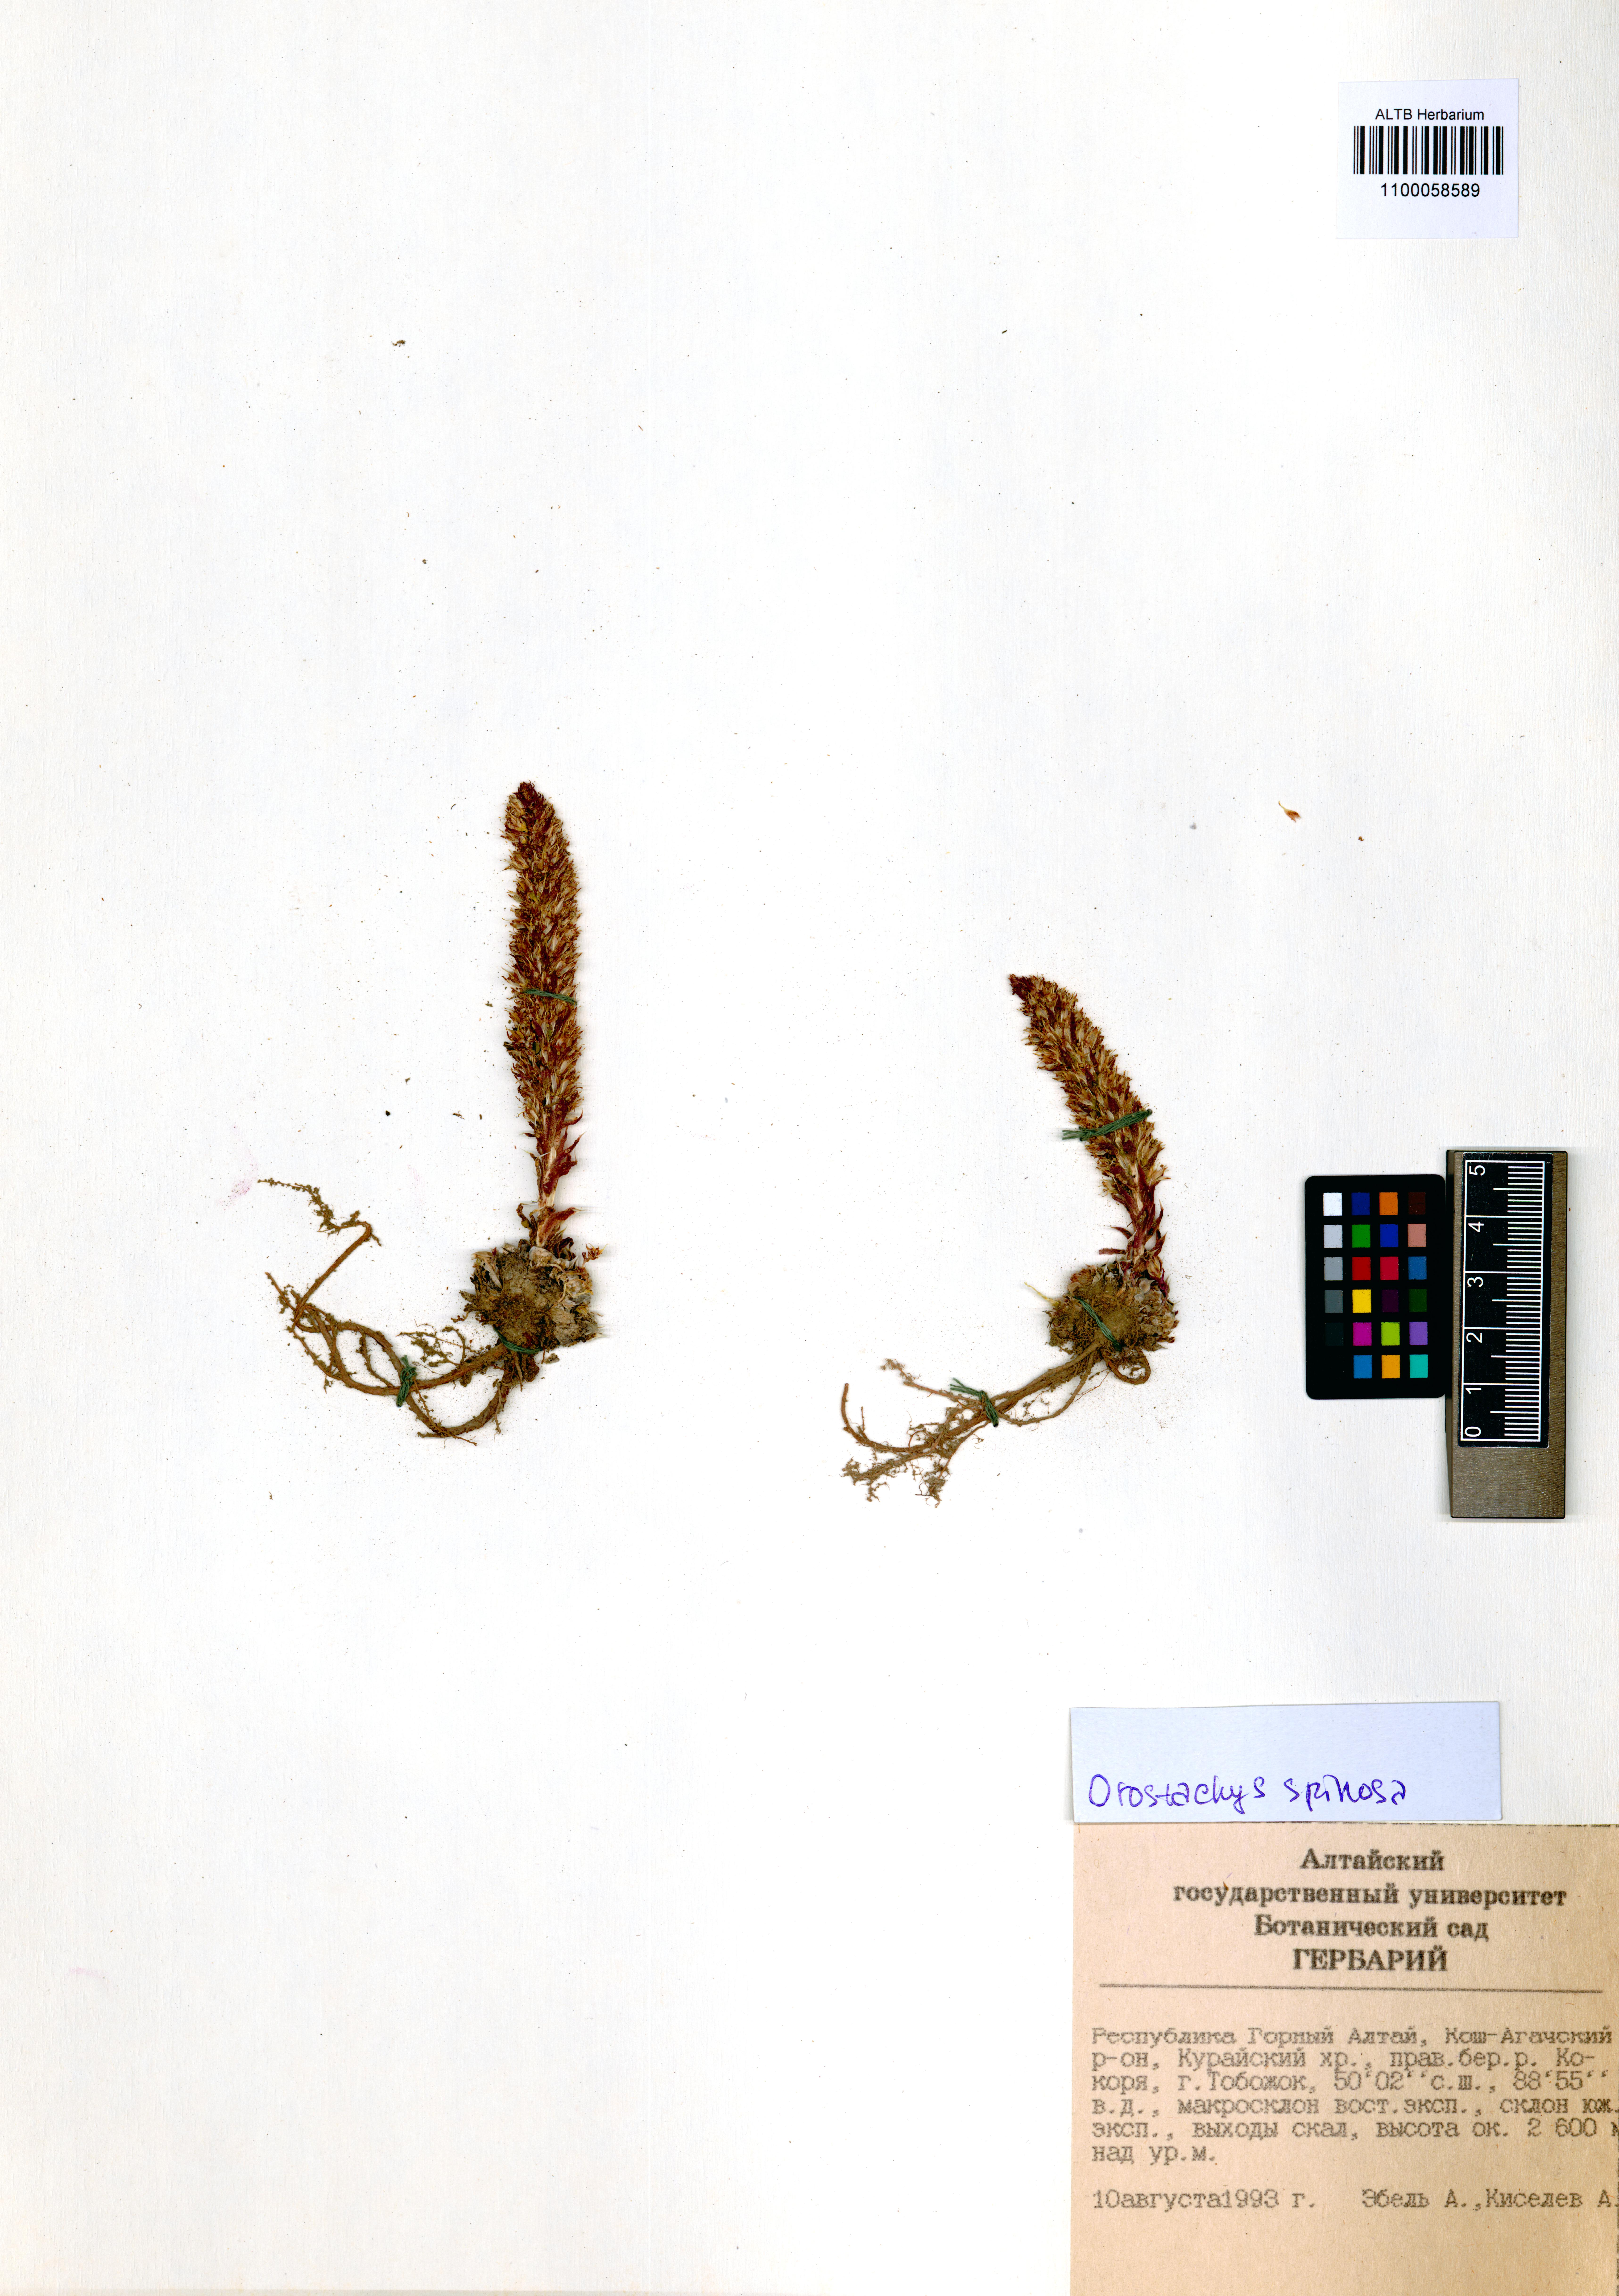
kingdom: Plantae
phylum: Tracheophyta
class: Magnoliopsida
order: Saxifragales
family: Crassulaceae
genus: Orostachys
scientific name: Orostachys spinosa
